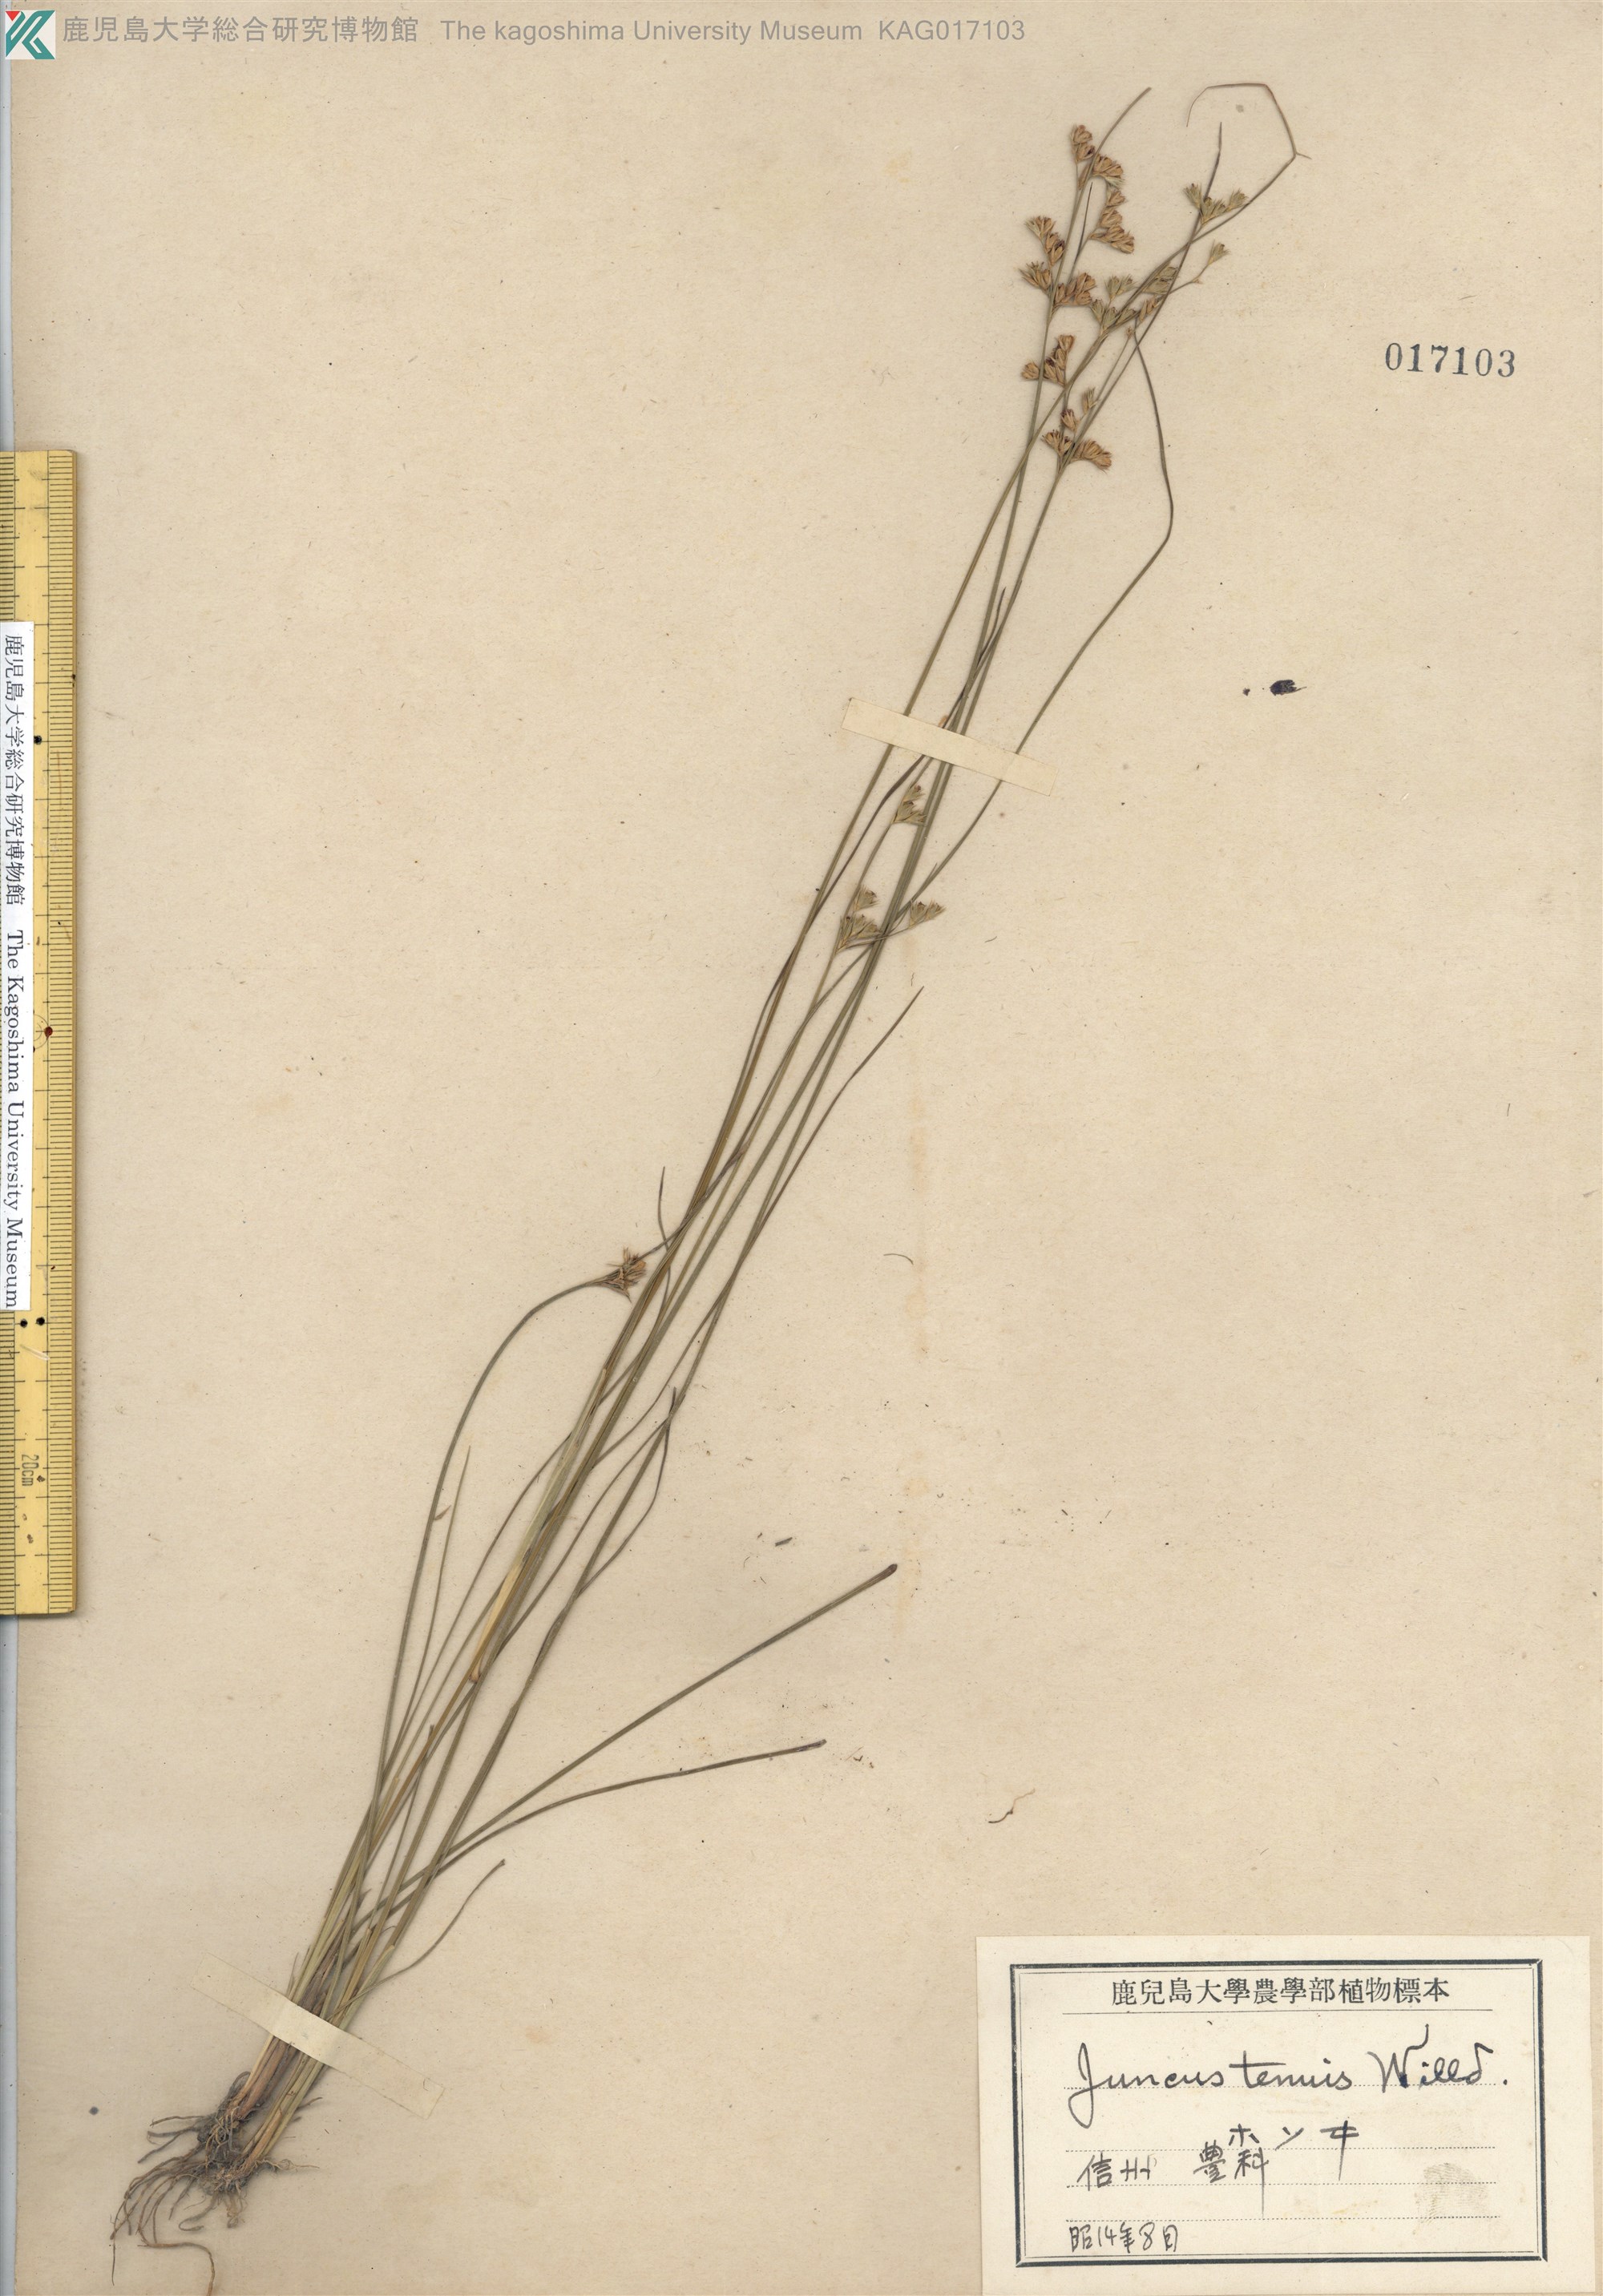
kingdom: Plantae
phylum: Tracheophyta
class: Liliopsida
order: Poales
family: Juncaceae
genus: Juncus
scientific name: Juncus tenuis
